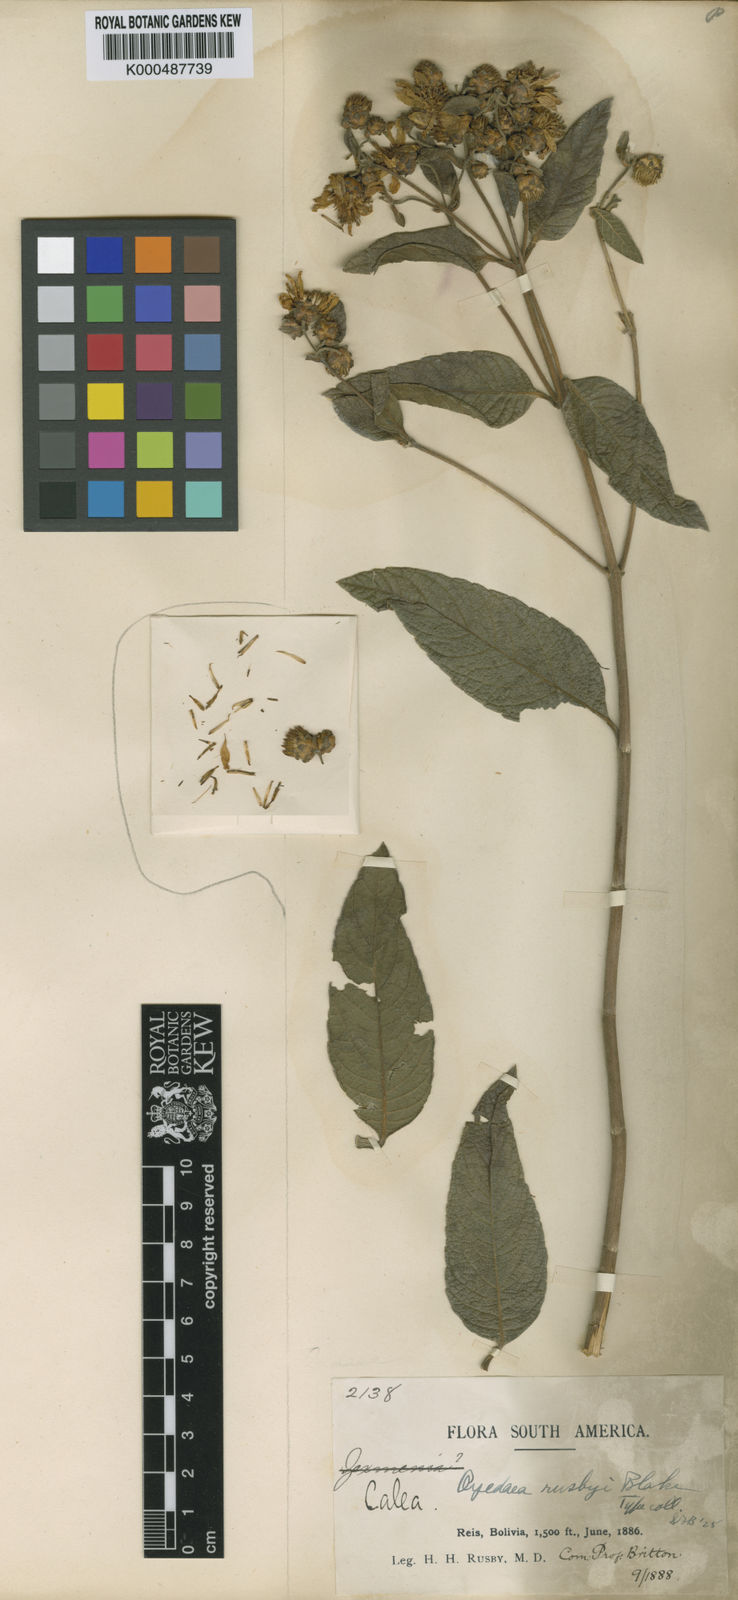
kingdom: Plantae
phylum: Tracheophyta
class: Magnoliopsida
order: Asterales
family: Asteraceae
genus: Oyedaea
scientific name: Oyedaea rusbyi
